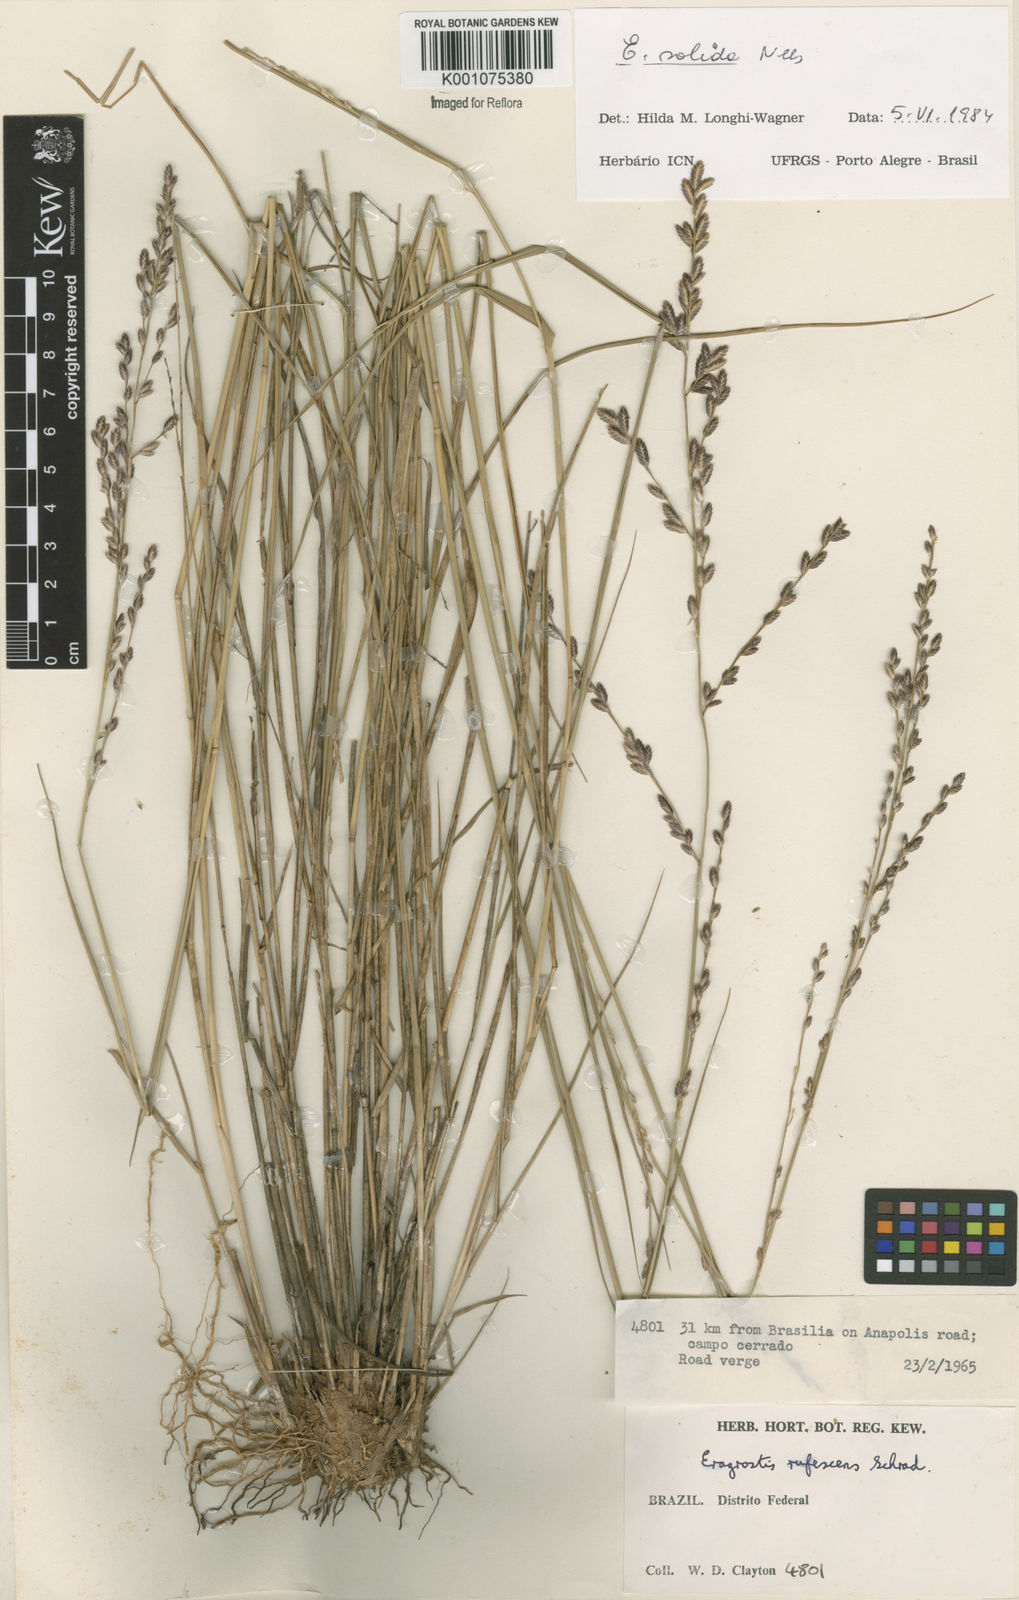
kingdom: Plantae
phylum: Tracheophyta
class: Liliopsida
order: Poales
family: Poaceae
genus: Eragrostis
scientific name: Eragrostis solida
